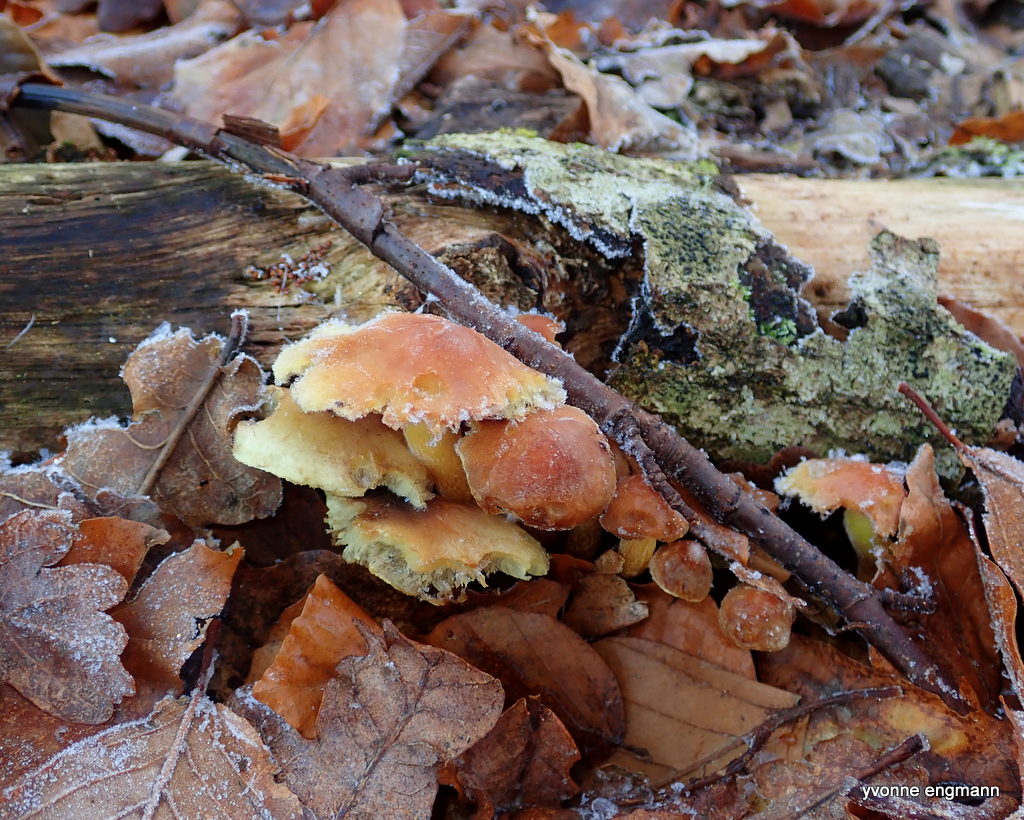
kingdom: Fungi
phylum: Basidiomycota
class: Agaricomycetes
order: Agaricales
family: Strophariaceae
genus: Hypholoma
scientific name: Hypholoma fasciculare
